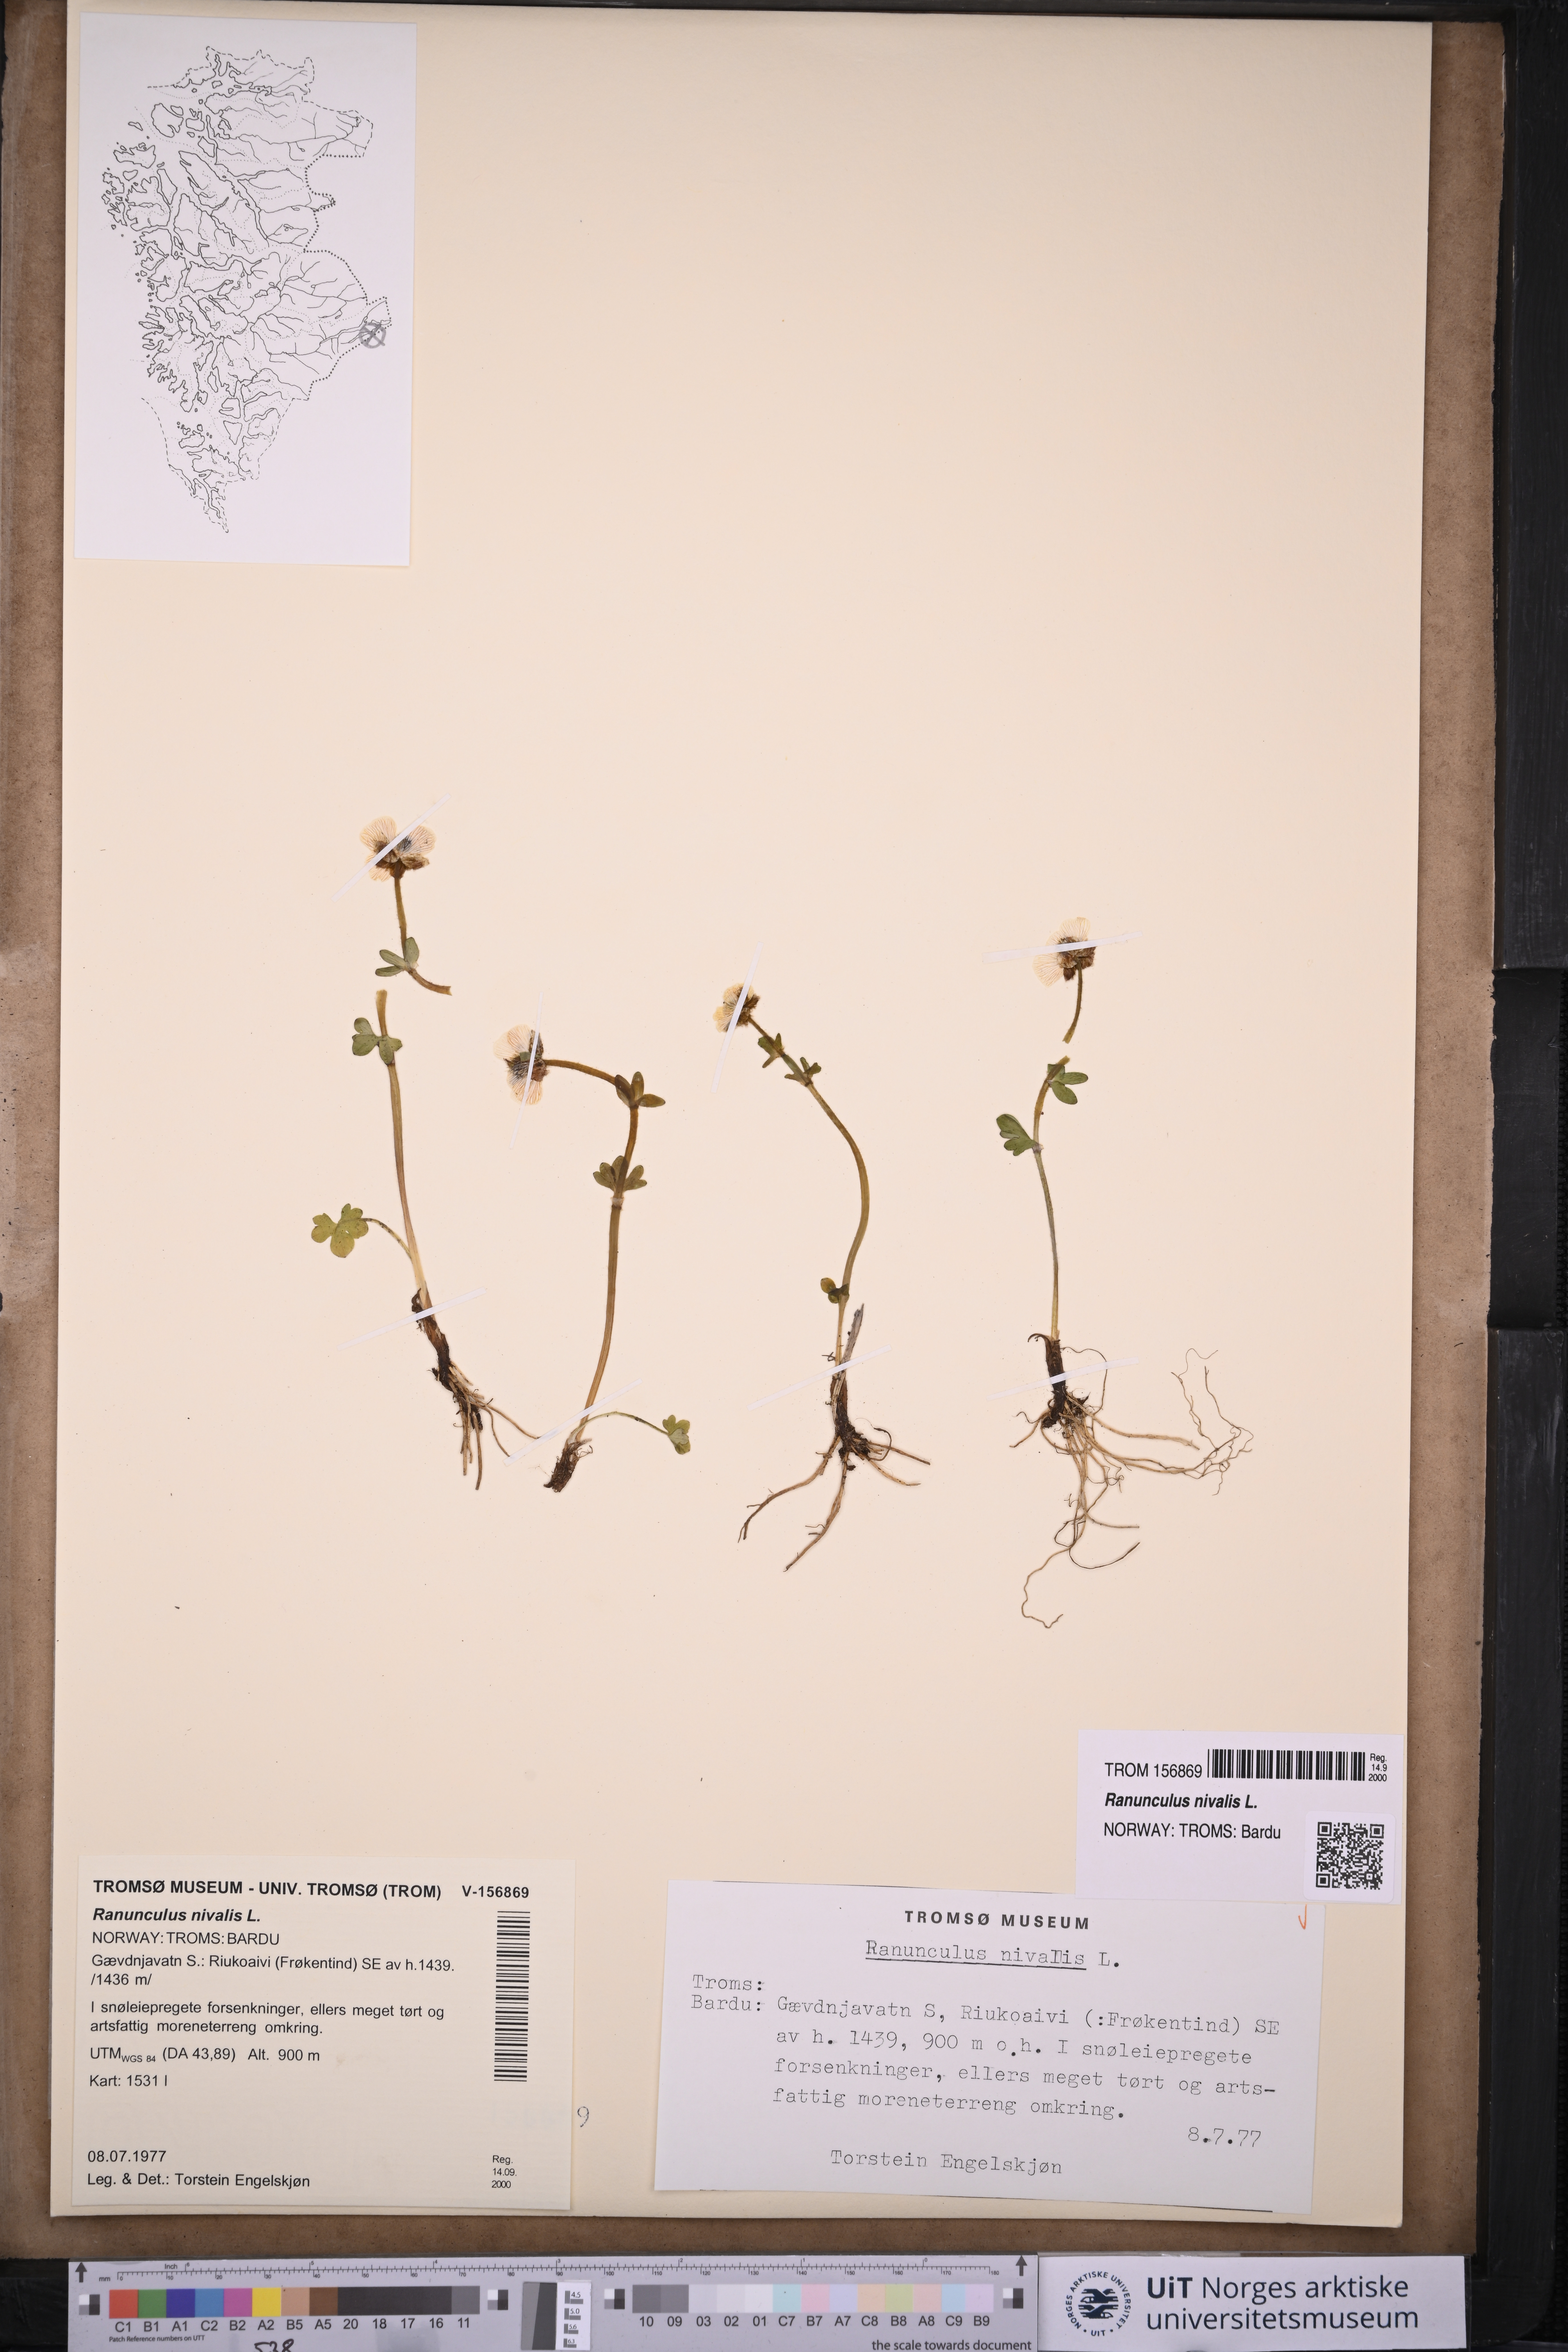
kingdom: Plantae
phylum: Tracheophyta
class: Magnoliopsida
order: Ranunculales
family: Ranunculaceae
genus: Ranunculus
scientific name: Ranunculus nivalis
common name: Snow buttercup
